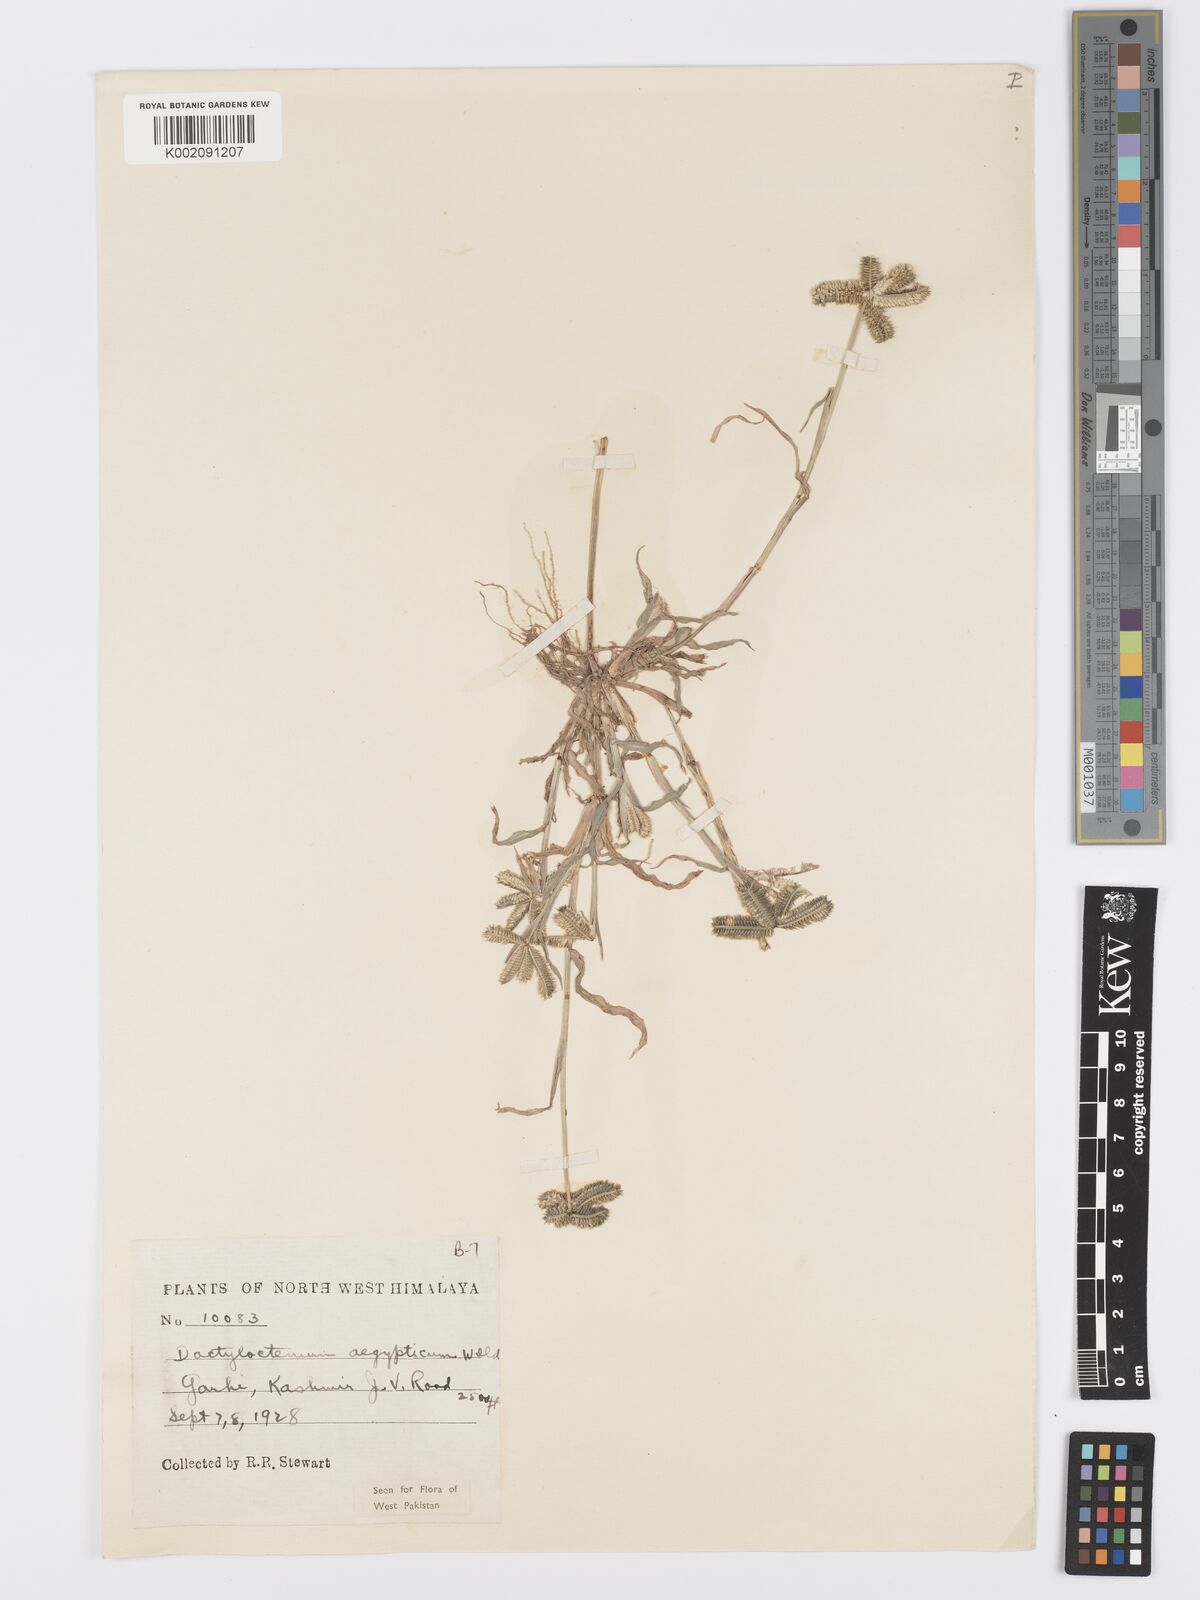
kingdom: Plantae
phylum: Tracheophyta
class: Liliopsida
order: Poales
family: Poaceae
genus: Dactyloctenium
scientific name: Dactyloctenium aegyptium
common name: Egyptian grass
